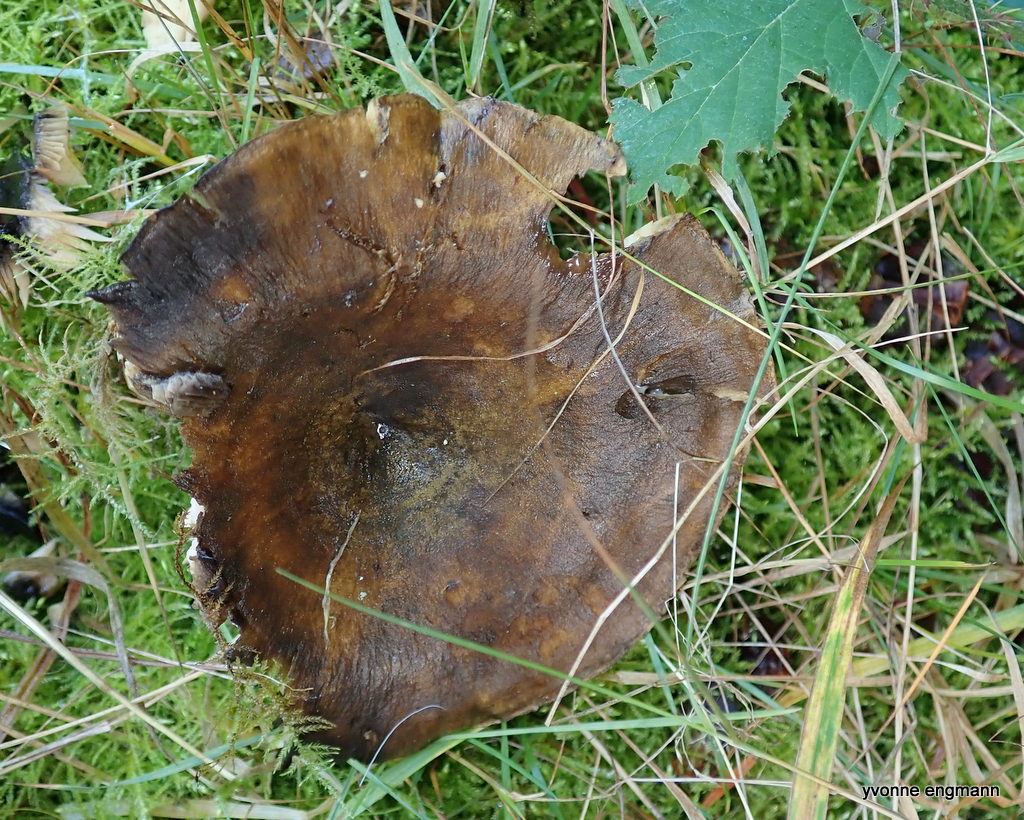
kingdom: Fungi
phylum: Basidiomycota
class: Agaricomycetes
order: Russulales
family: Russulaceae
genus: Lactarius
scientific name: Lactarius necator
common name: manddraber-mælkehat
